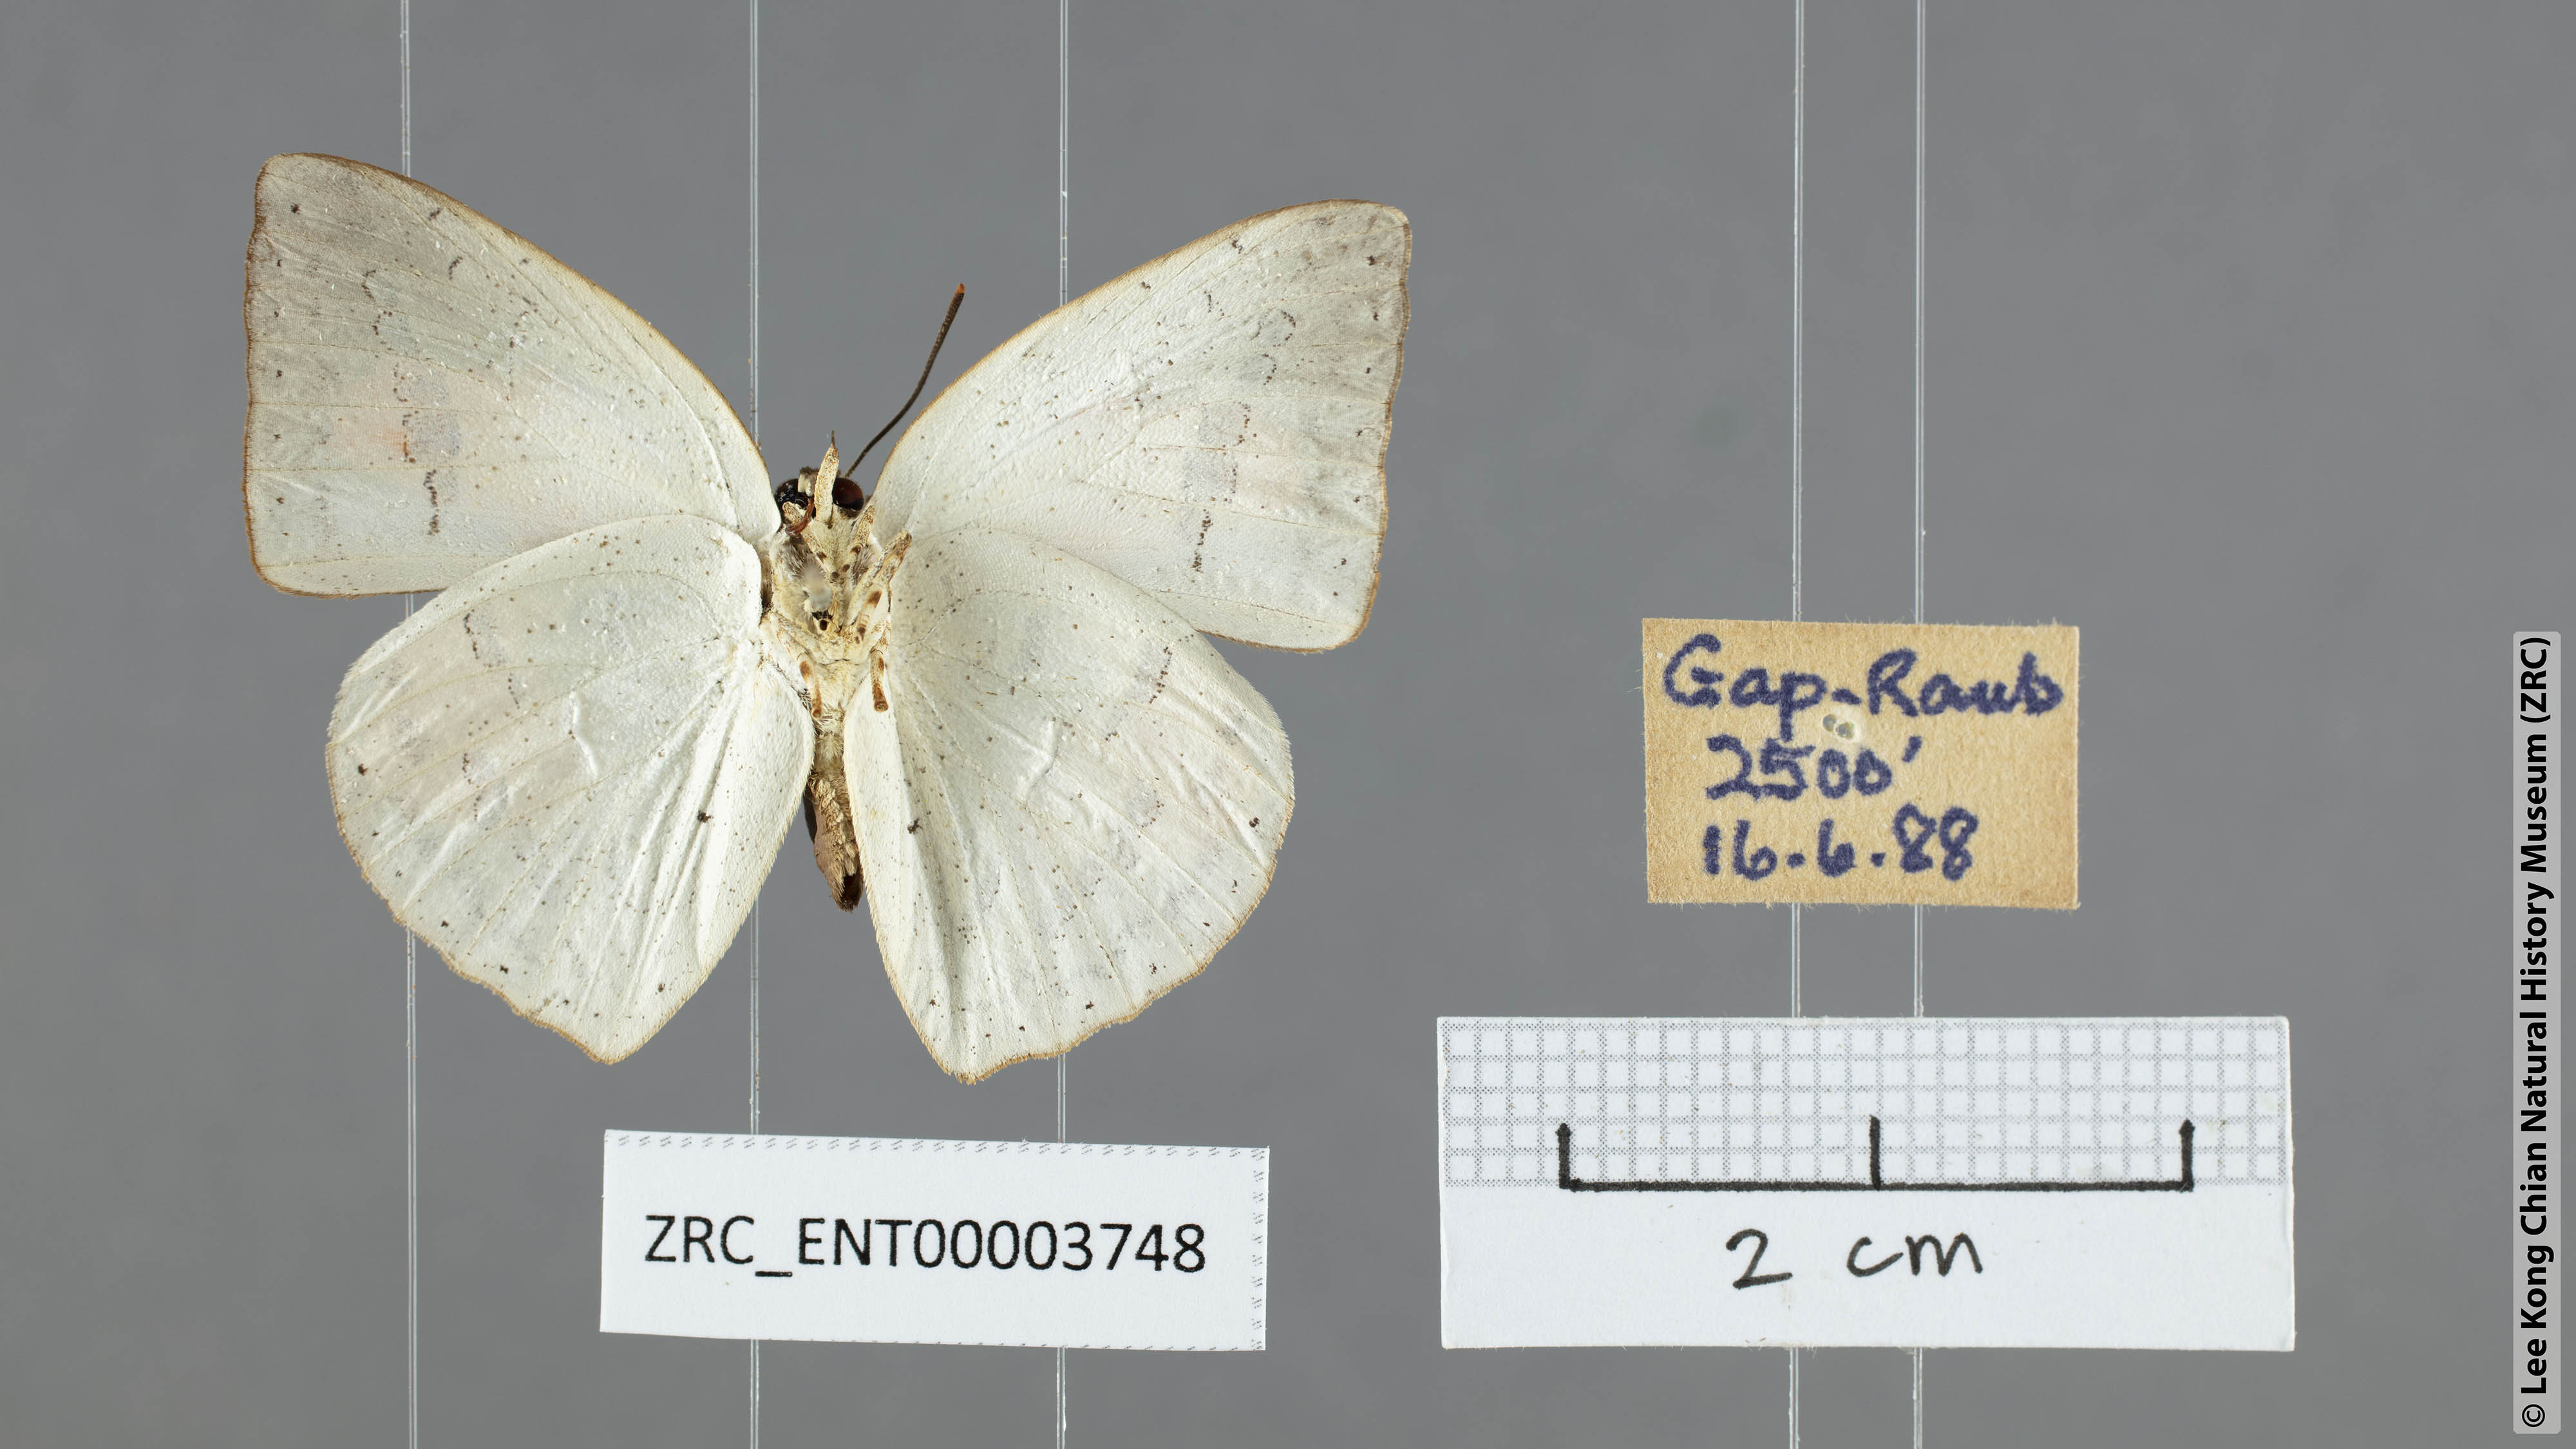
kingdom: Animalia
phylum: Arthropoda
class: Insecta
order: Lepidoptera
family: Lycaenidae
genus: Curetis
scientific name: Curetis santana
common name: Malayan sunbeam
